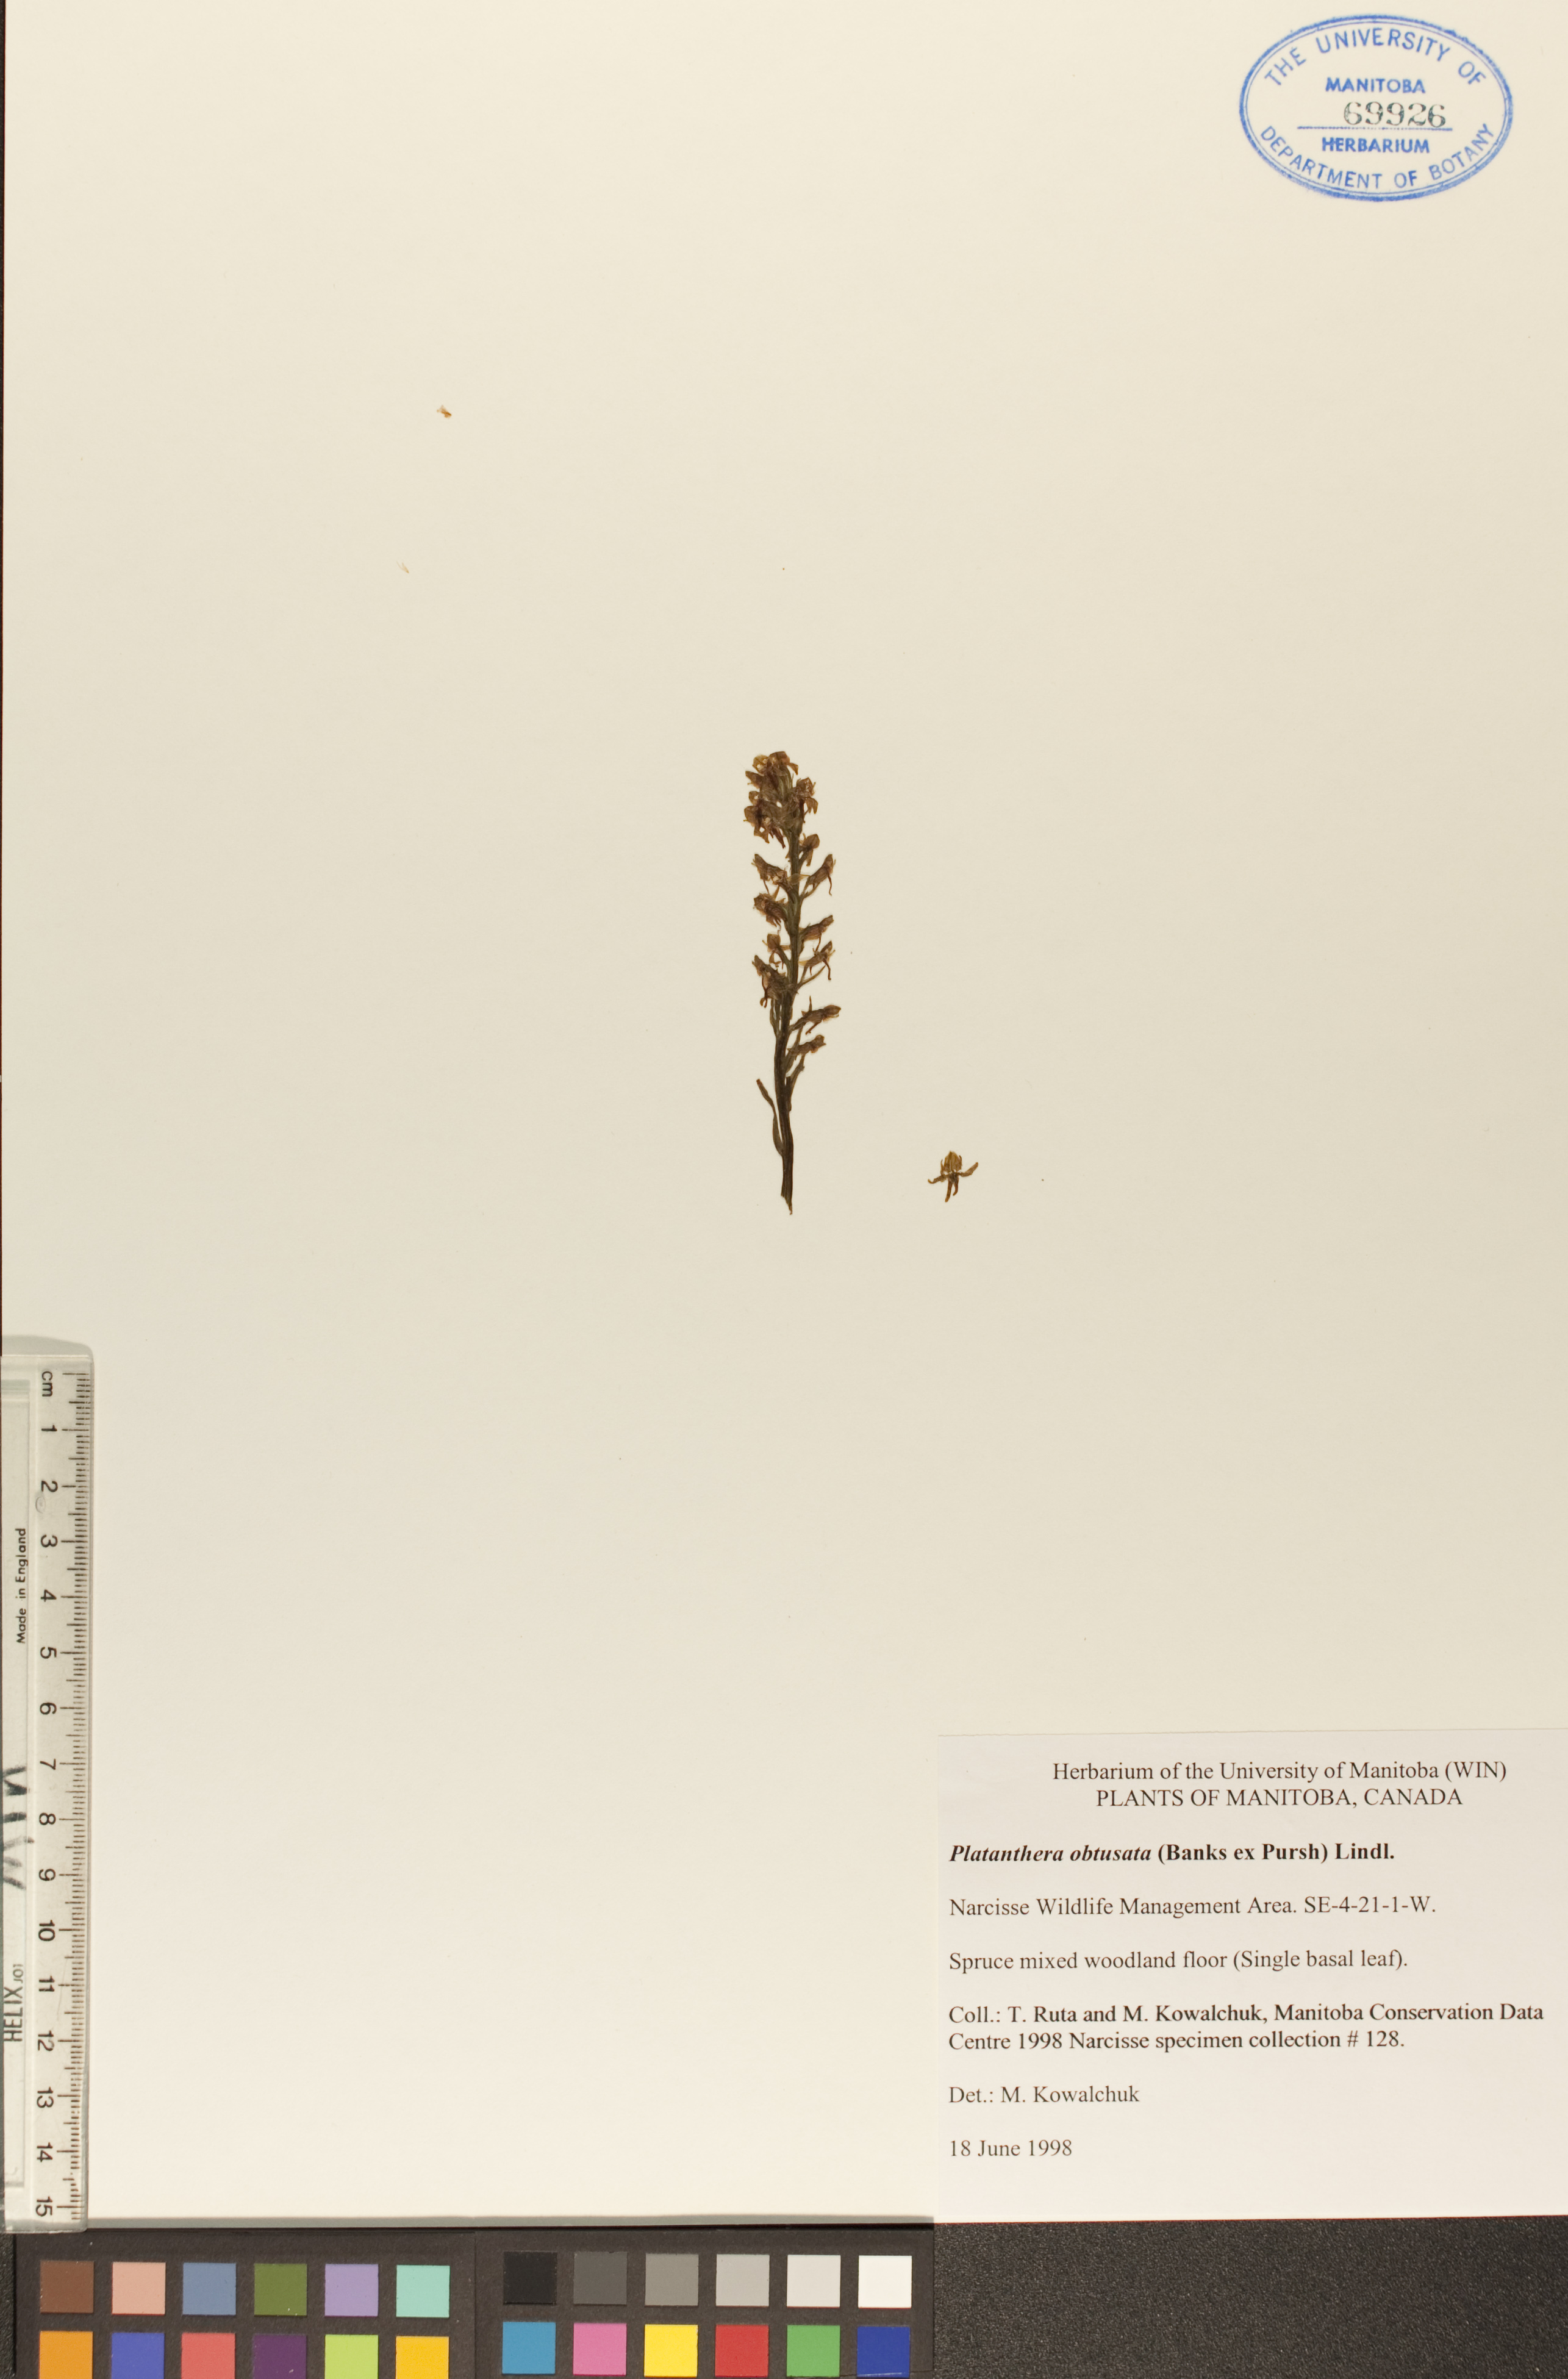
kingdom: Plantae
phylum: Tracheophyta
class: Liliopsida
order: Asparagales
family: Orchidaceae
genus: Platanthera
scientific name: Platanthera obtusata
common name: Blunt bog orchid
